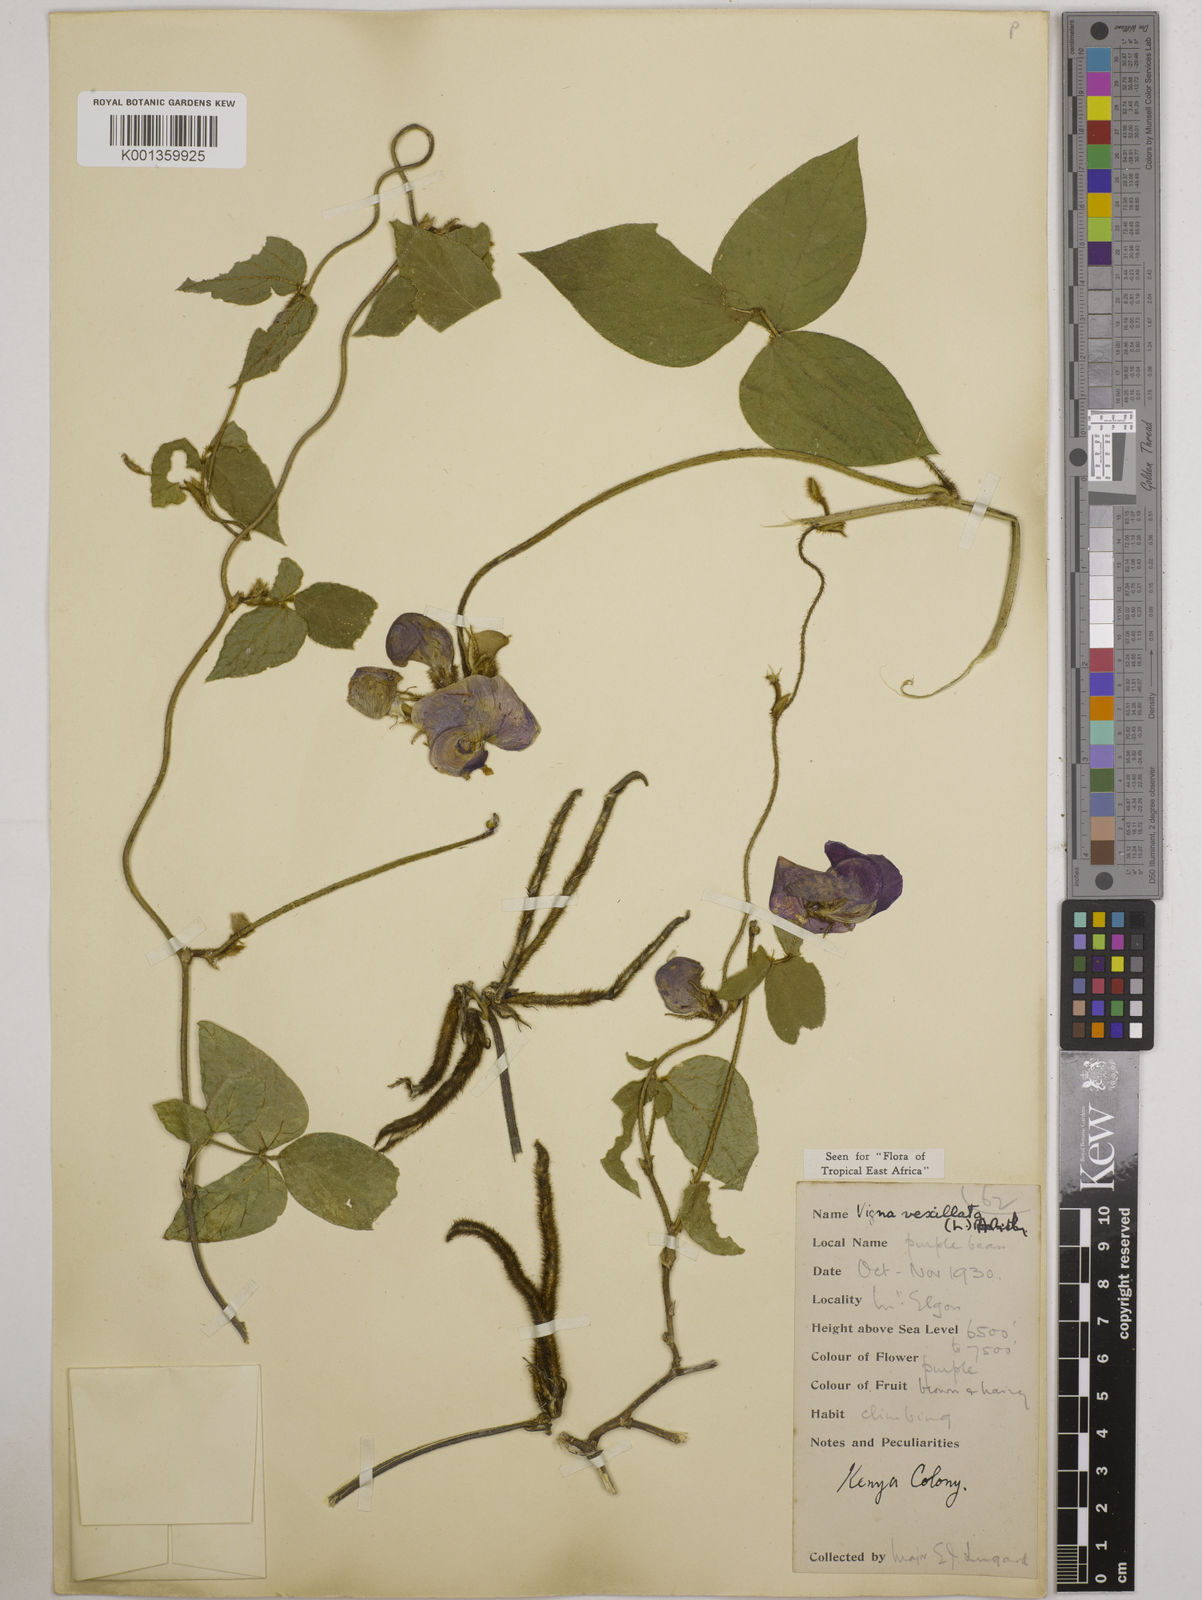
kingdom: Plantae
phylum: Tracheophyta
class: Magnoliopsida
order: Fabales
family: Fabaceae
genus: Vigna
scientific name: Vigna vexillata
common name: Zombi pea
